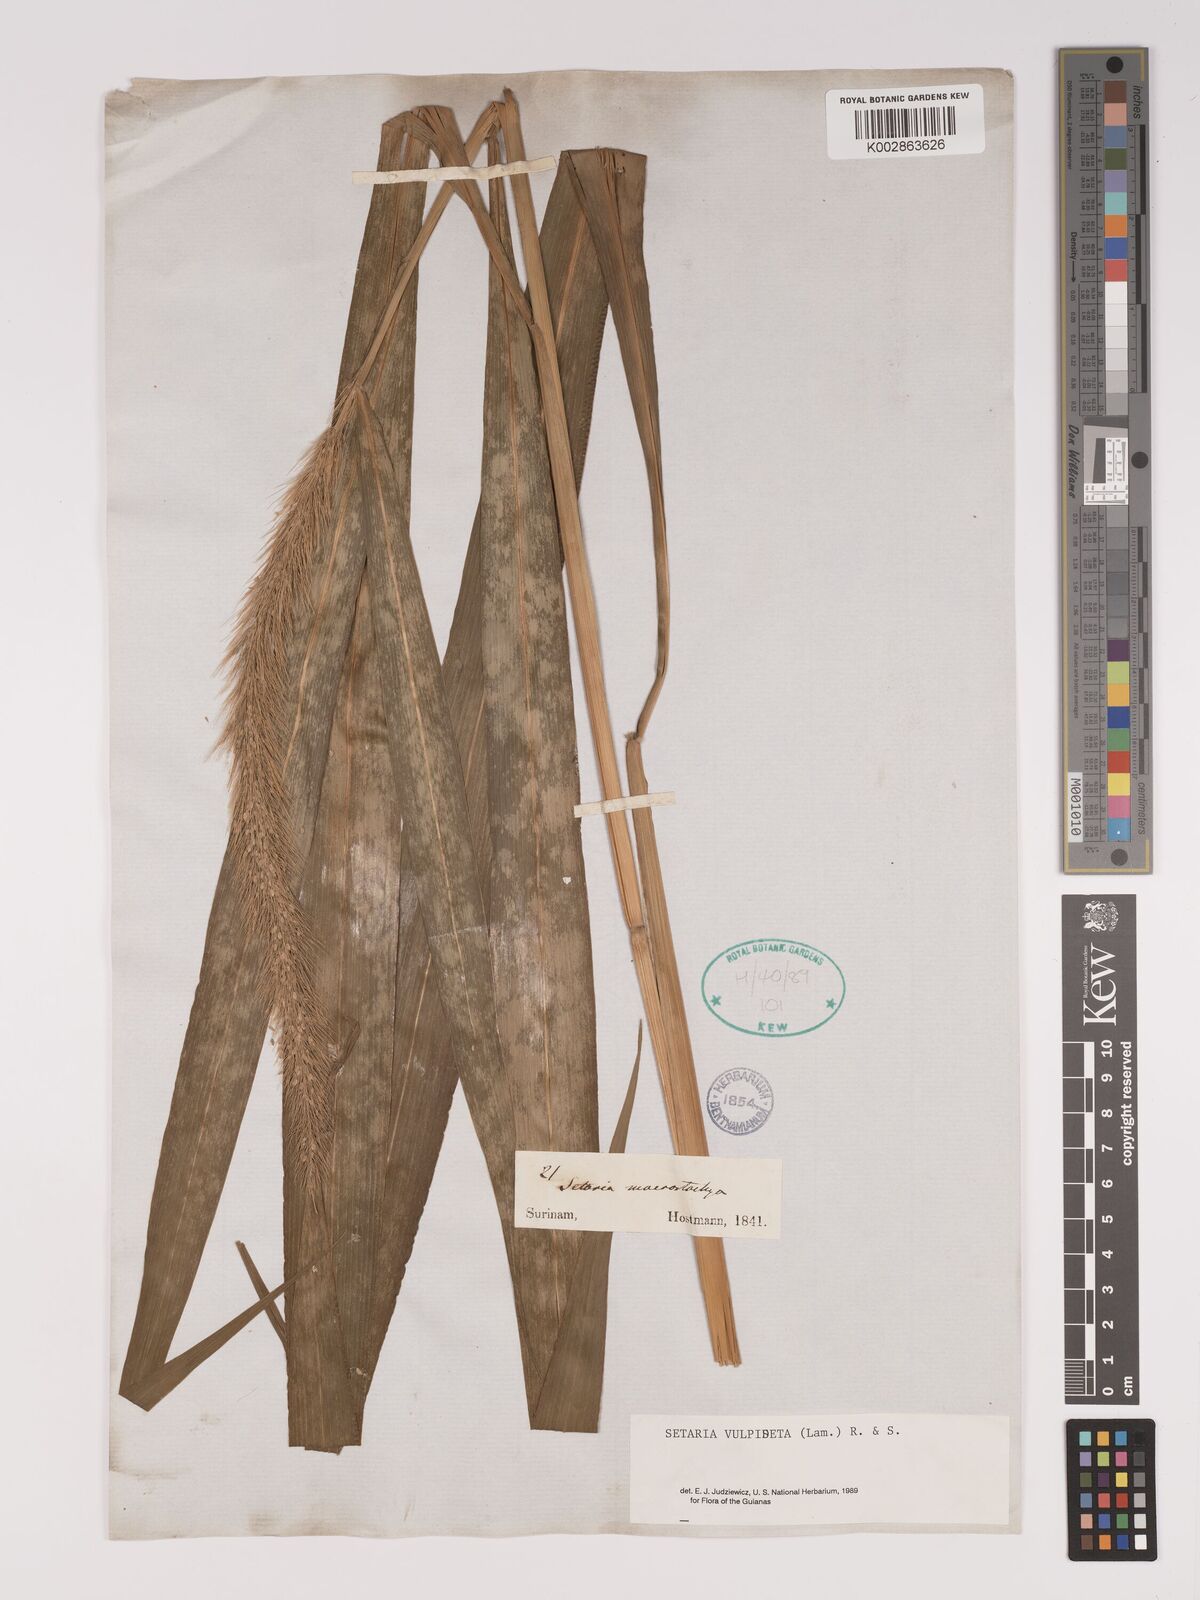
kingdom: Plantae
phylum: Tracheophyta
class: Liliopsida
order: Poales
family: Poaceae
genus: Setaria
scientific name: Setaria vulpiseta
